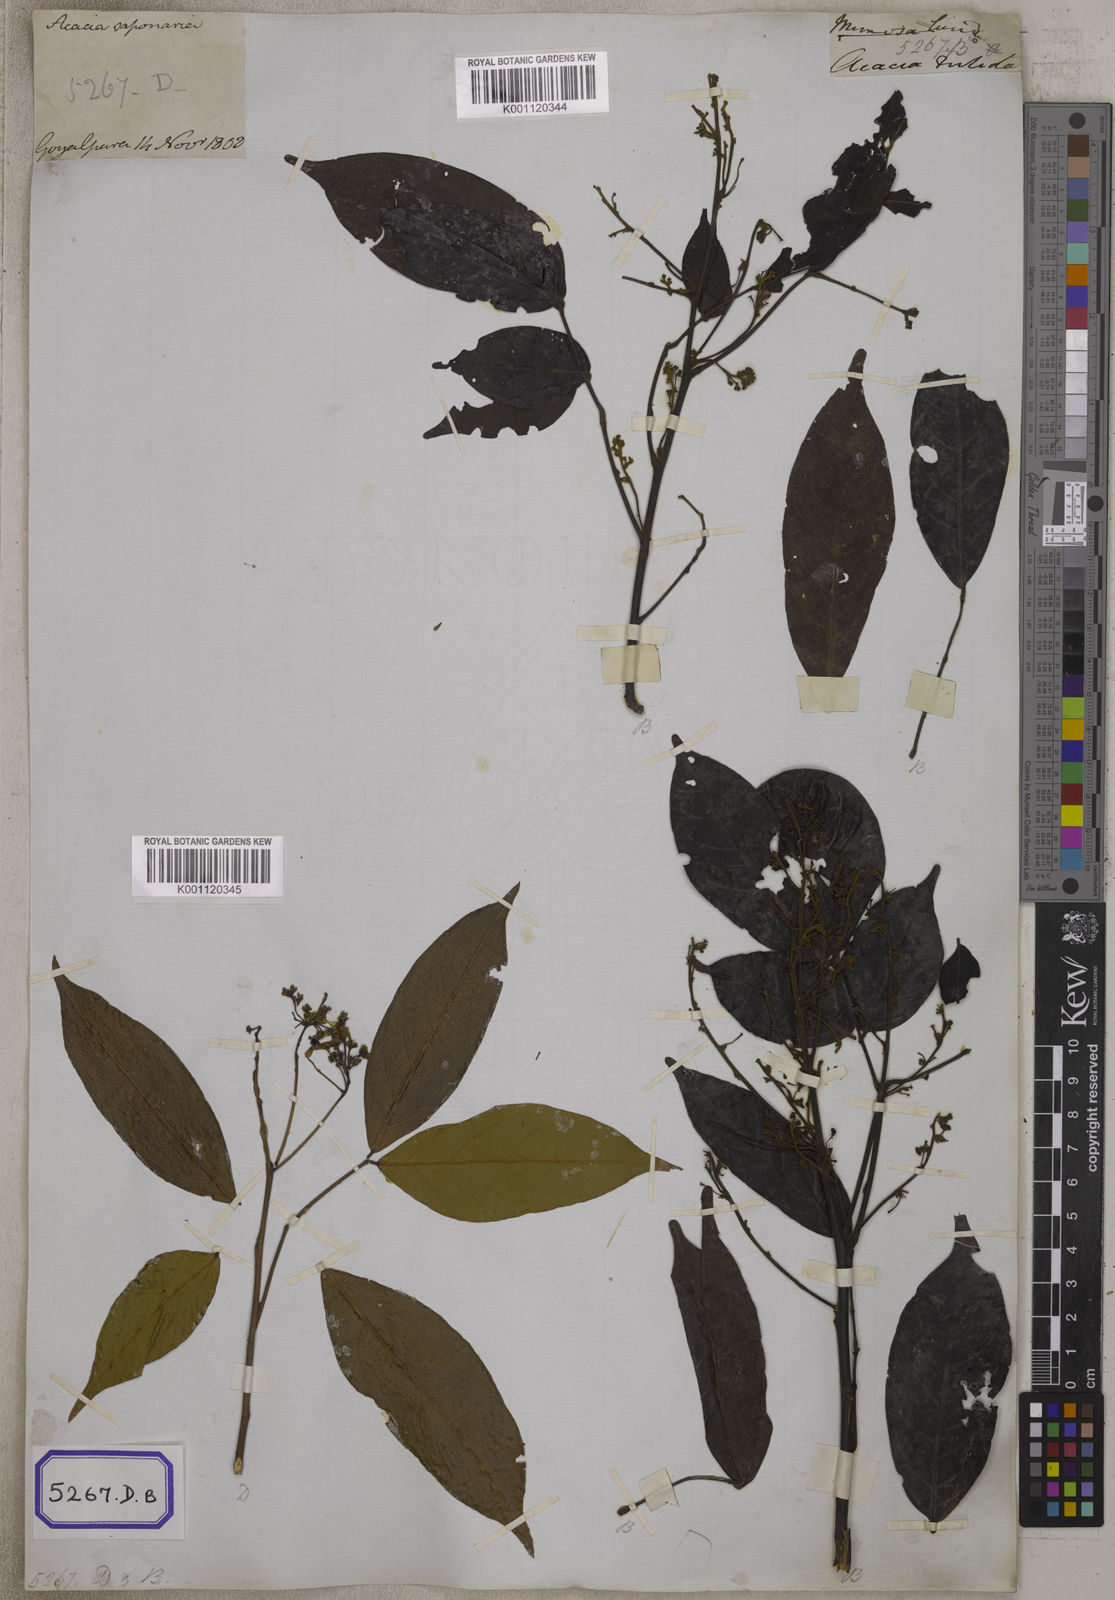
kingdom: Plantae
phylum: Tracheophyta
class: Magnoliopsida
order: Fabales
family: Fabaceae
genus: Albizia
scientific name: Albizia lucidior
